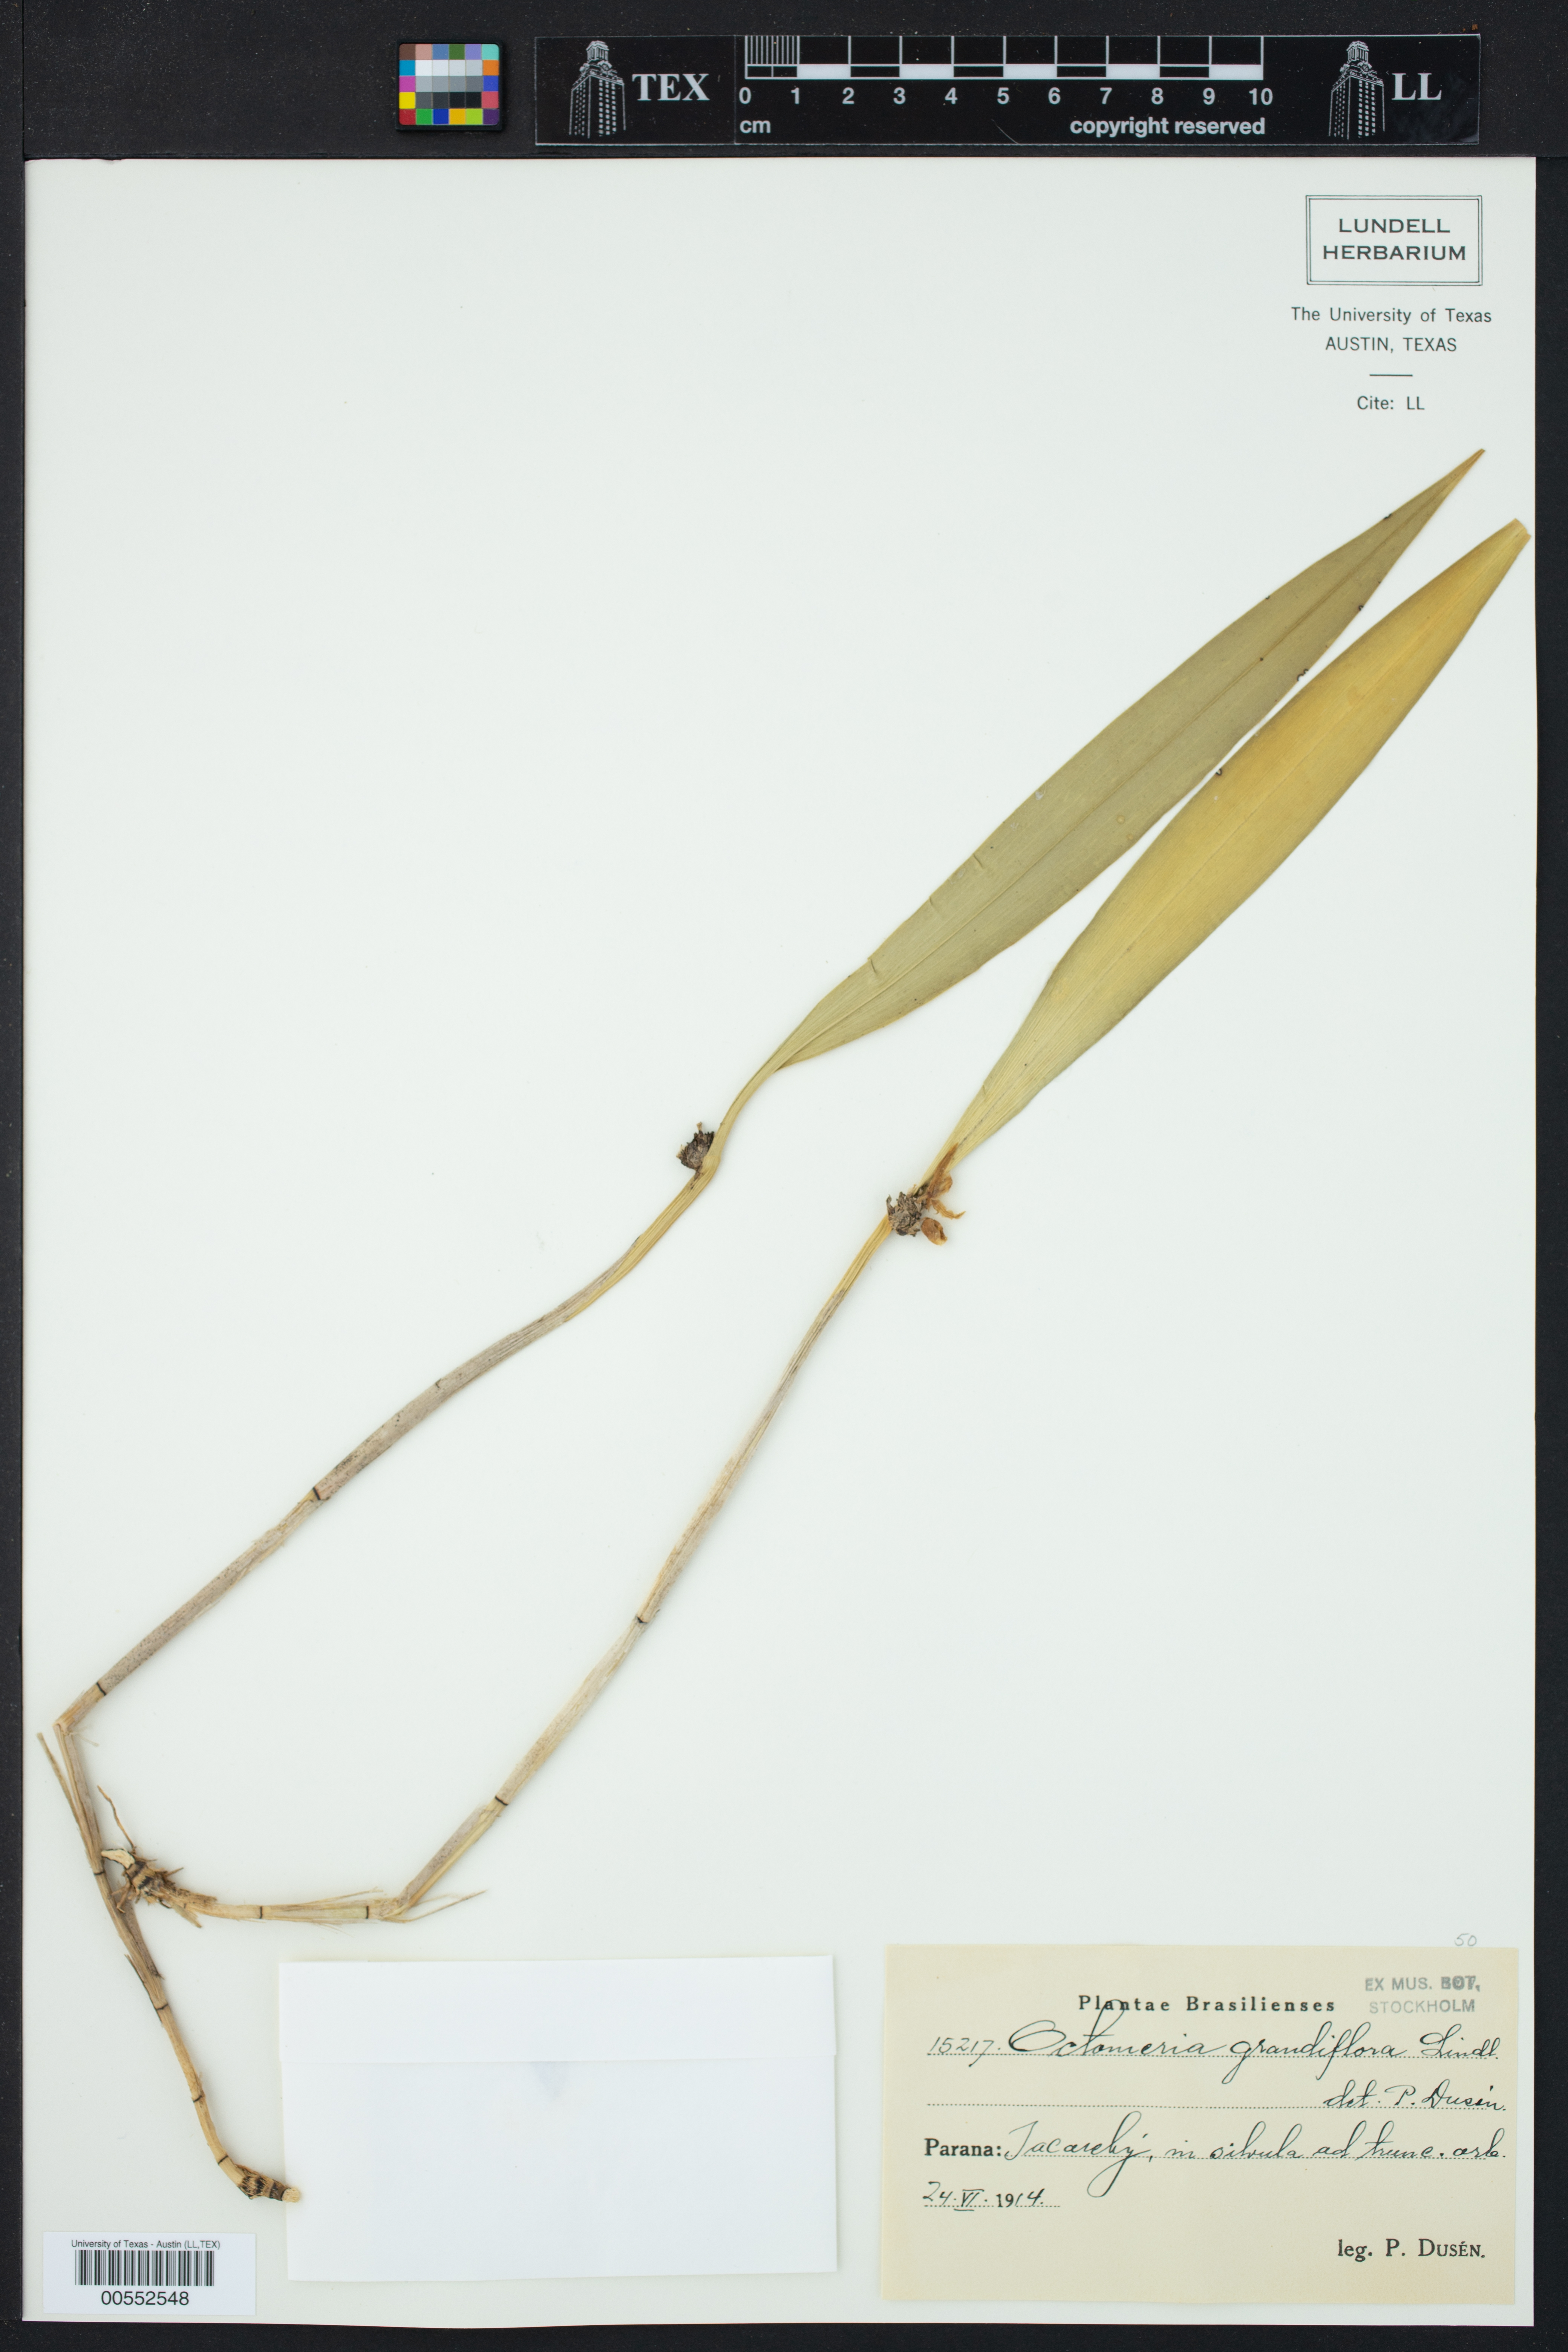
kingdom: Plantae
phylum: Tracheophyta
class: Liliopsida
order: Asparagales
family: Orchidaceae
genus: Octomeria
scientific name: Octomeria grandiflora
